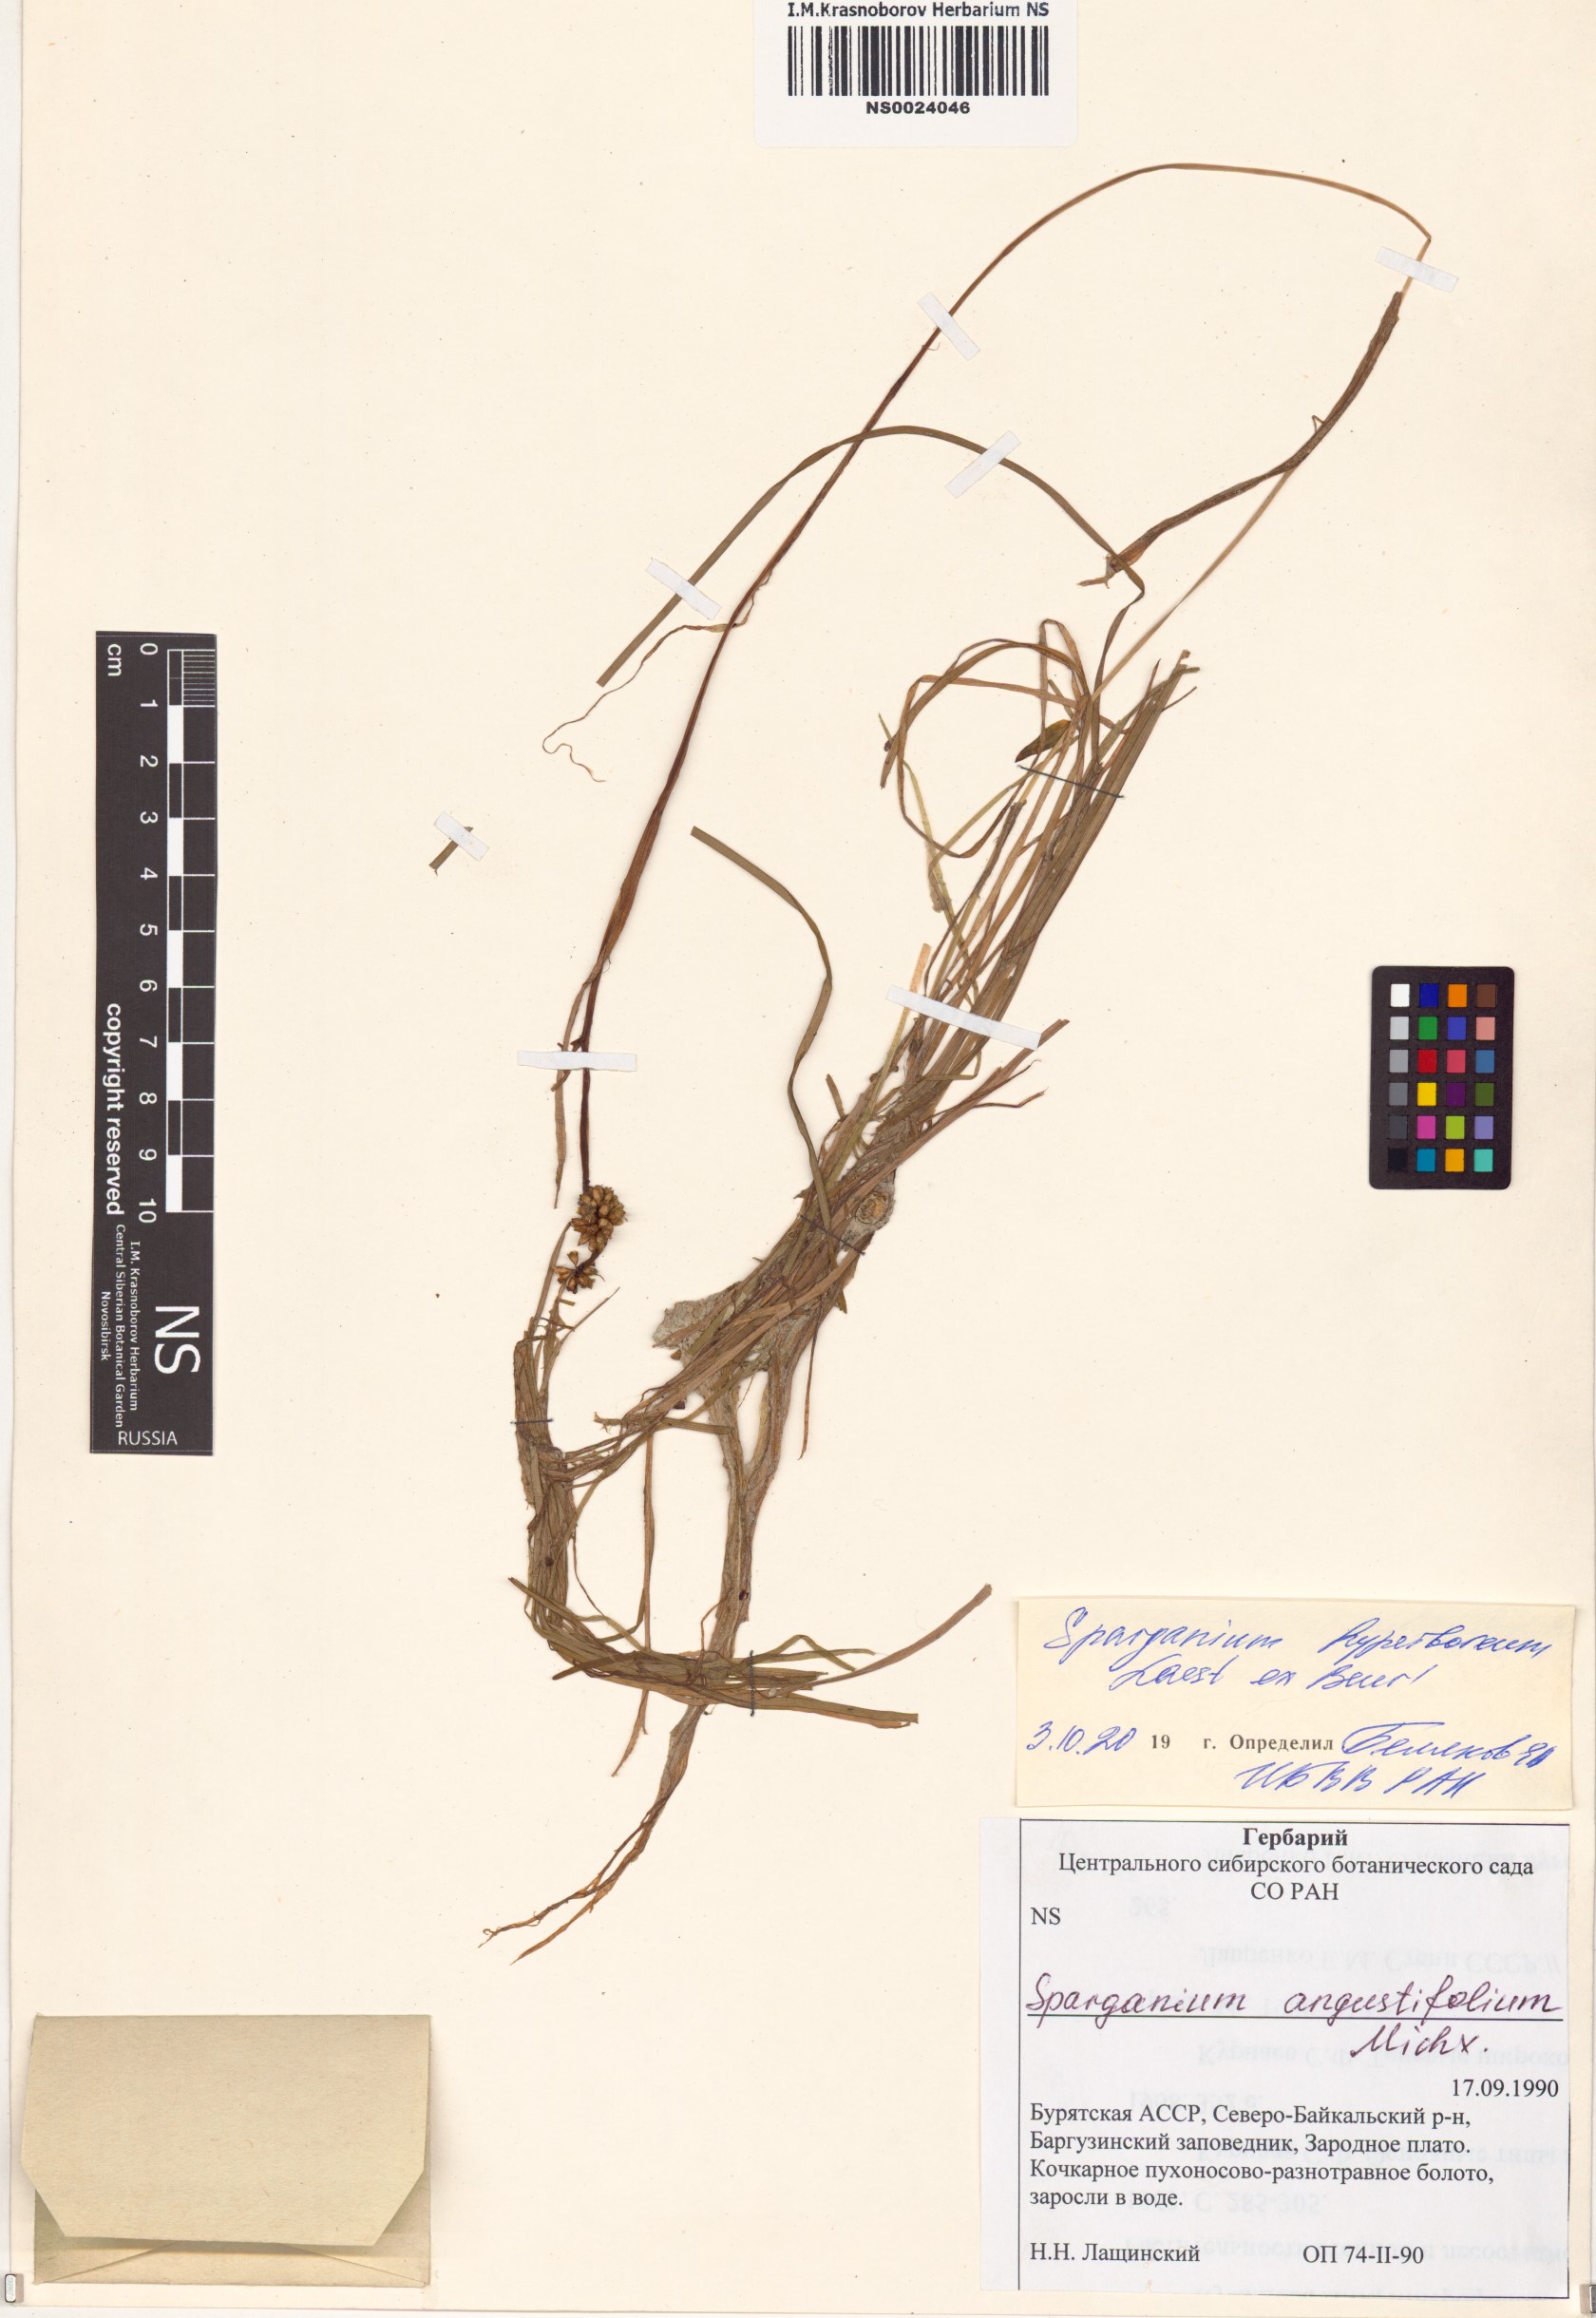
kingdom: Plantae
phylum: Tracheophyta
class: Liliopsida
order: Poales
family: Typhaceae
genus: Sparganium
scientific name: Sparganium hyperboreum
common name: Arctic burreed
